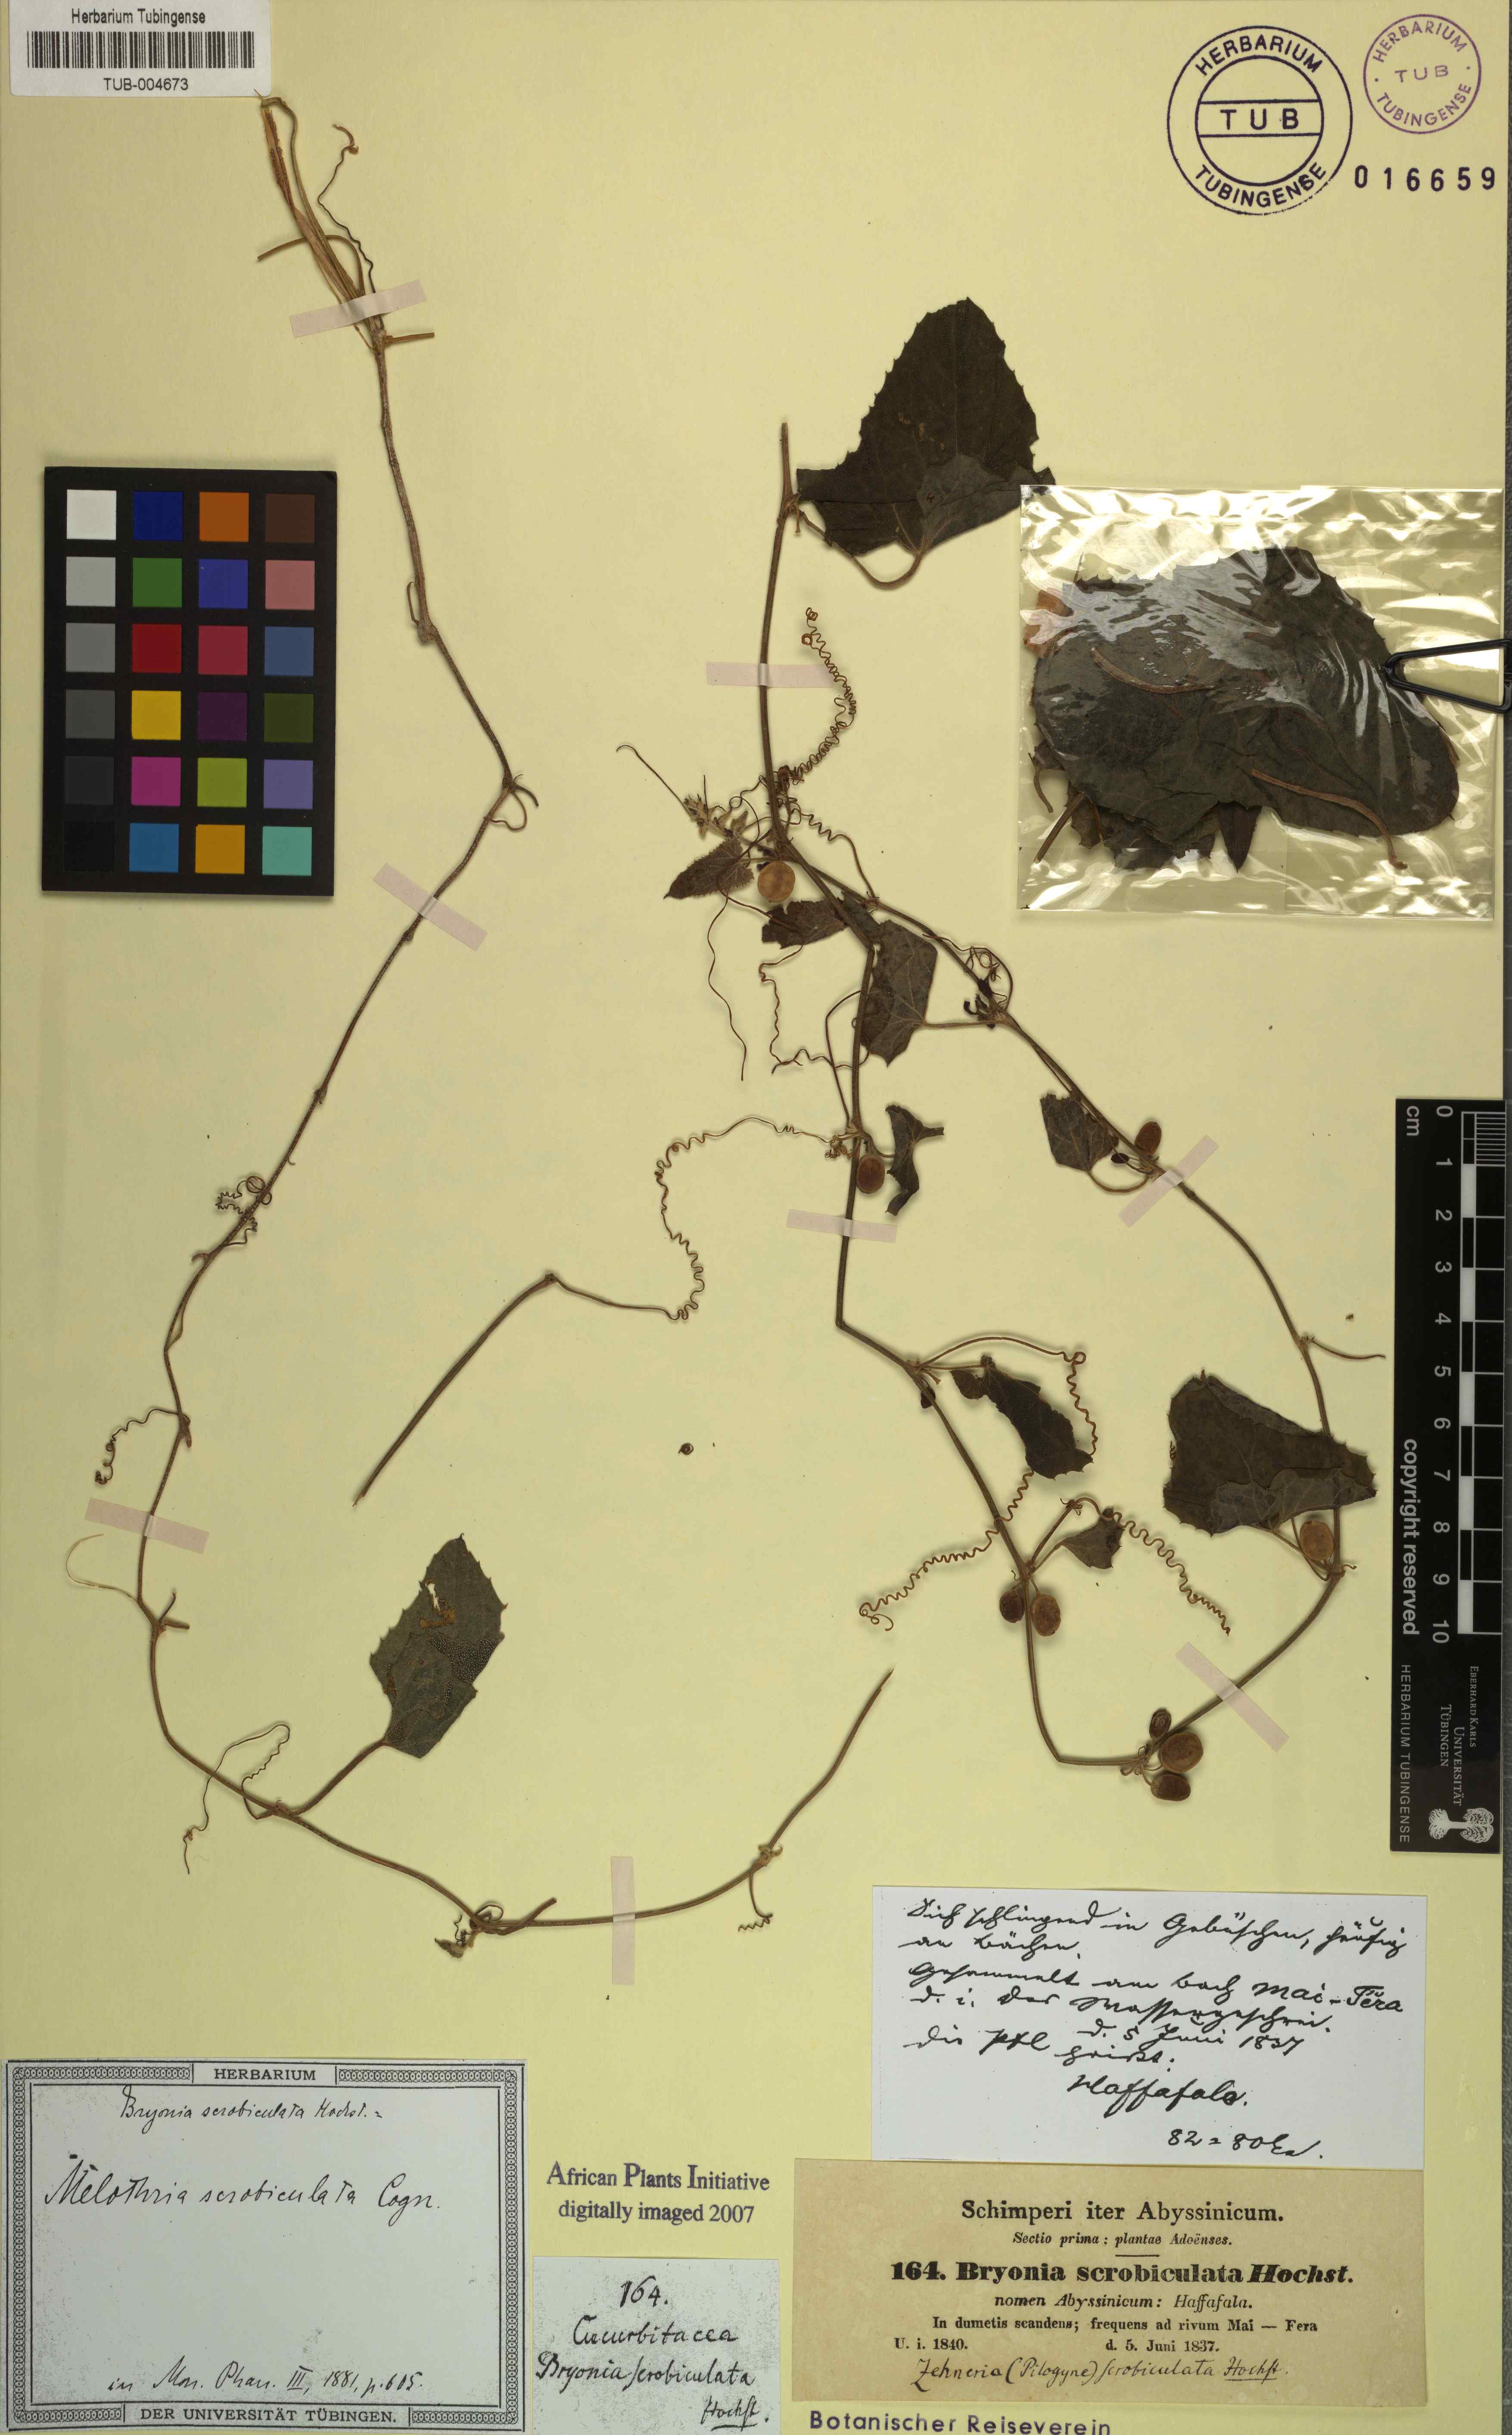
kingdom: Plantae
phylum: Tracheophyta
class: Magnoliopsida
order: Cucurbitales
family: Cucurbitaceae
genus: Zehneria
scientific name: Zehneria scabra
